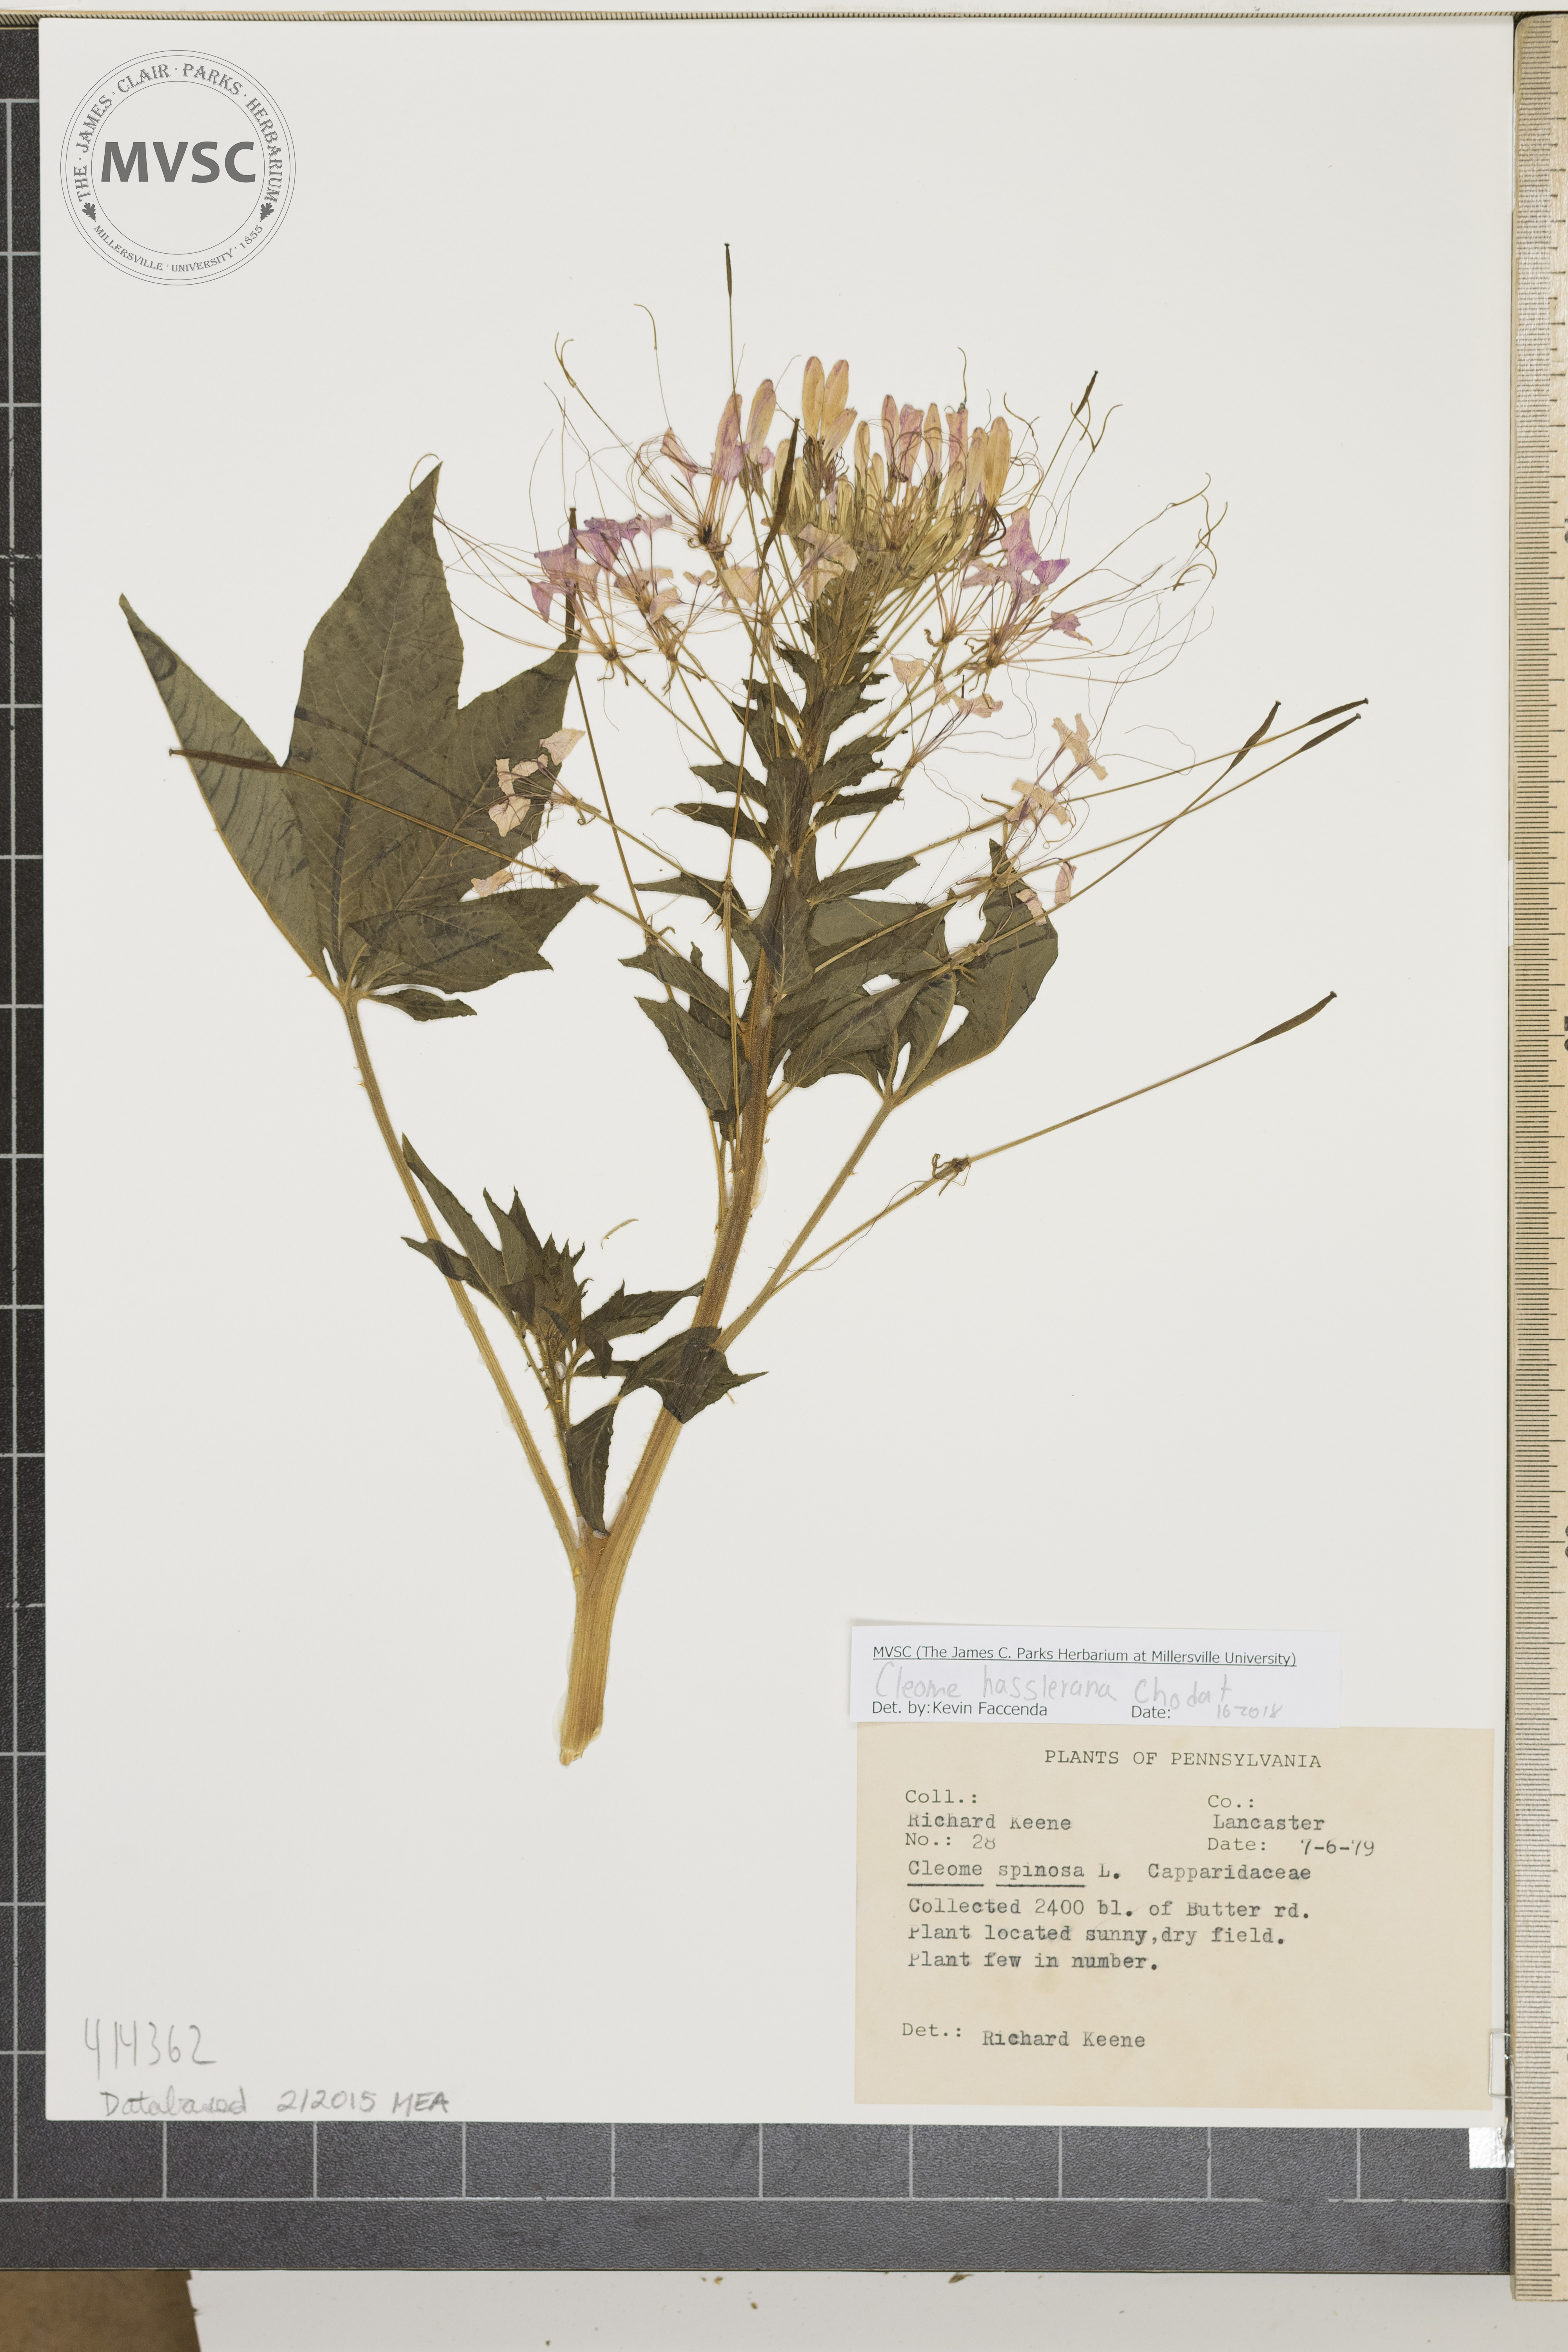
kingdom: Plantae
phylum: Tracheophyta
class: Magnoliopsida
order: Brassicales
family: Cleomaceae
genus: Tarenaya
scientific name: Tarenaya houtteana
